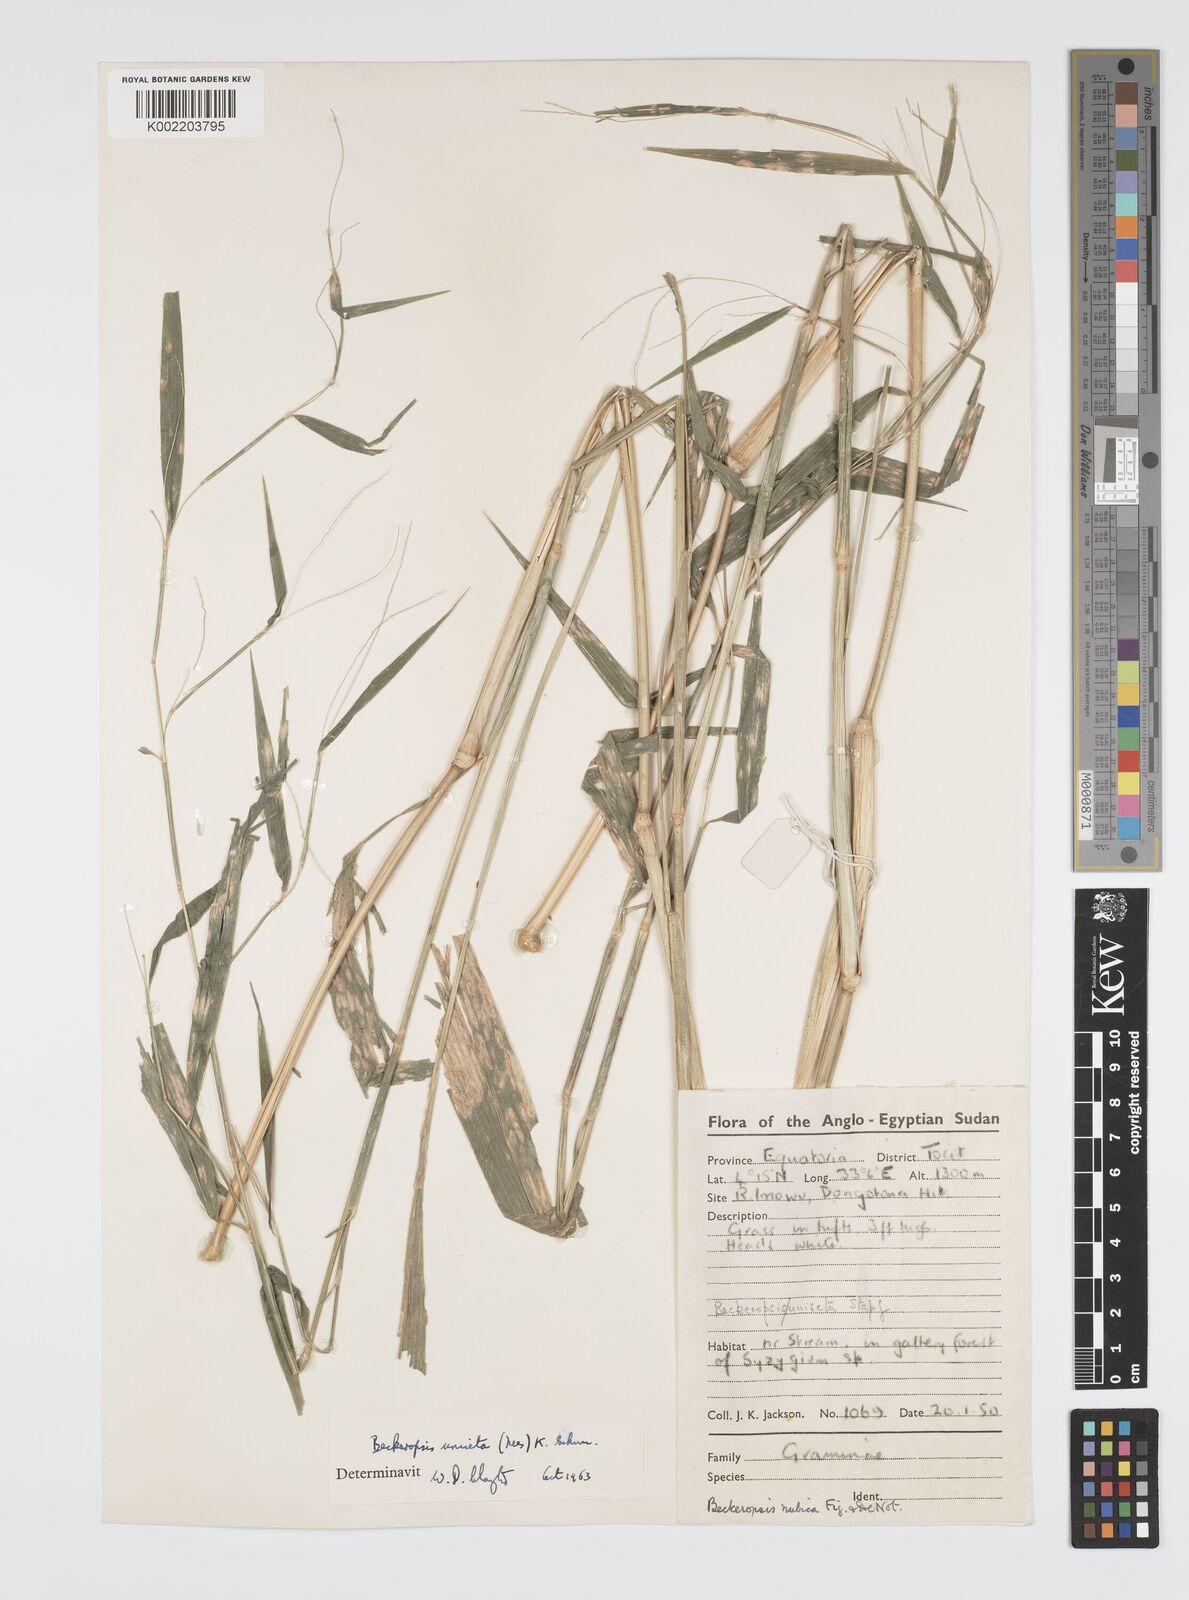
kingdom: Plantae
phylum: Tracheophyta
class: Liliopsida
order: Poales
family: Poaceae
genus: Cenchrus
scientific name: Cenchrus unisetus
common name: Natal grass
